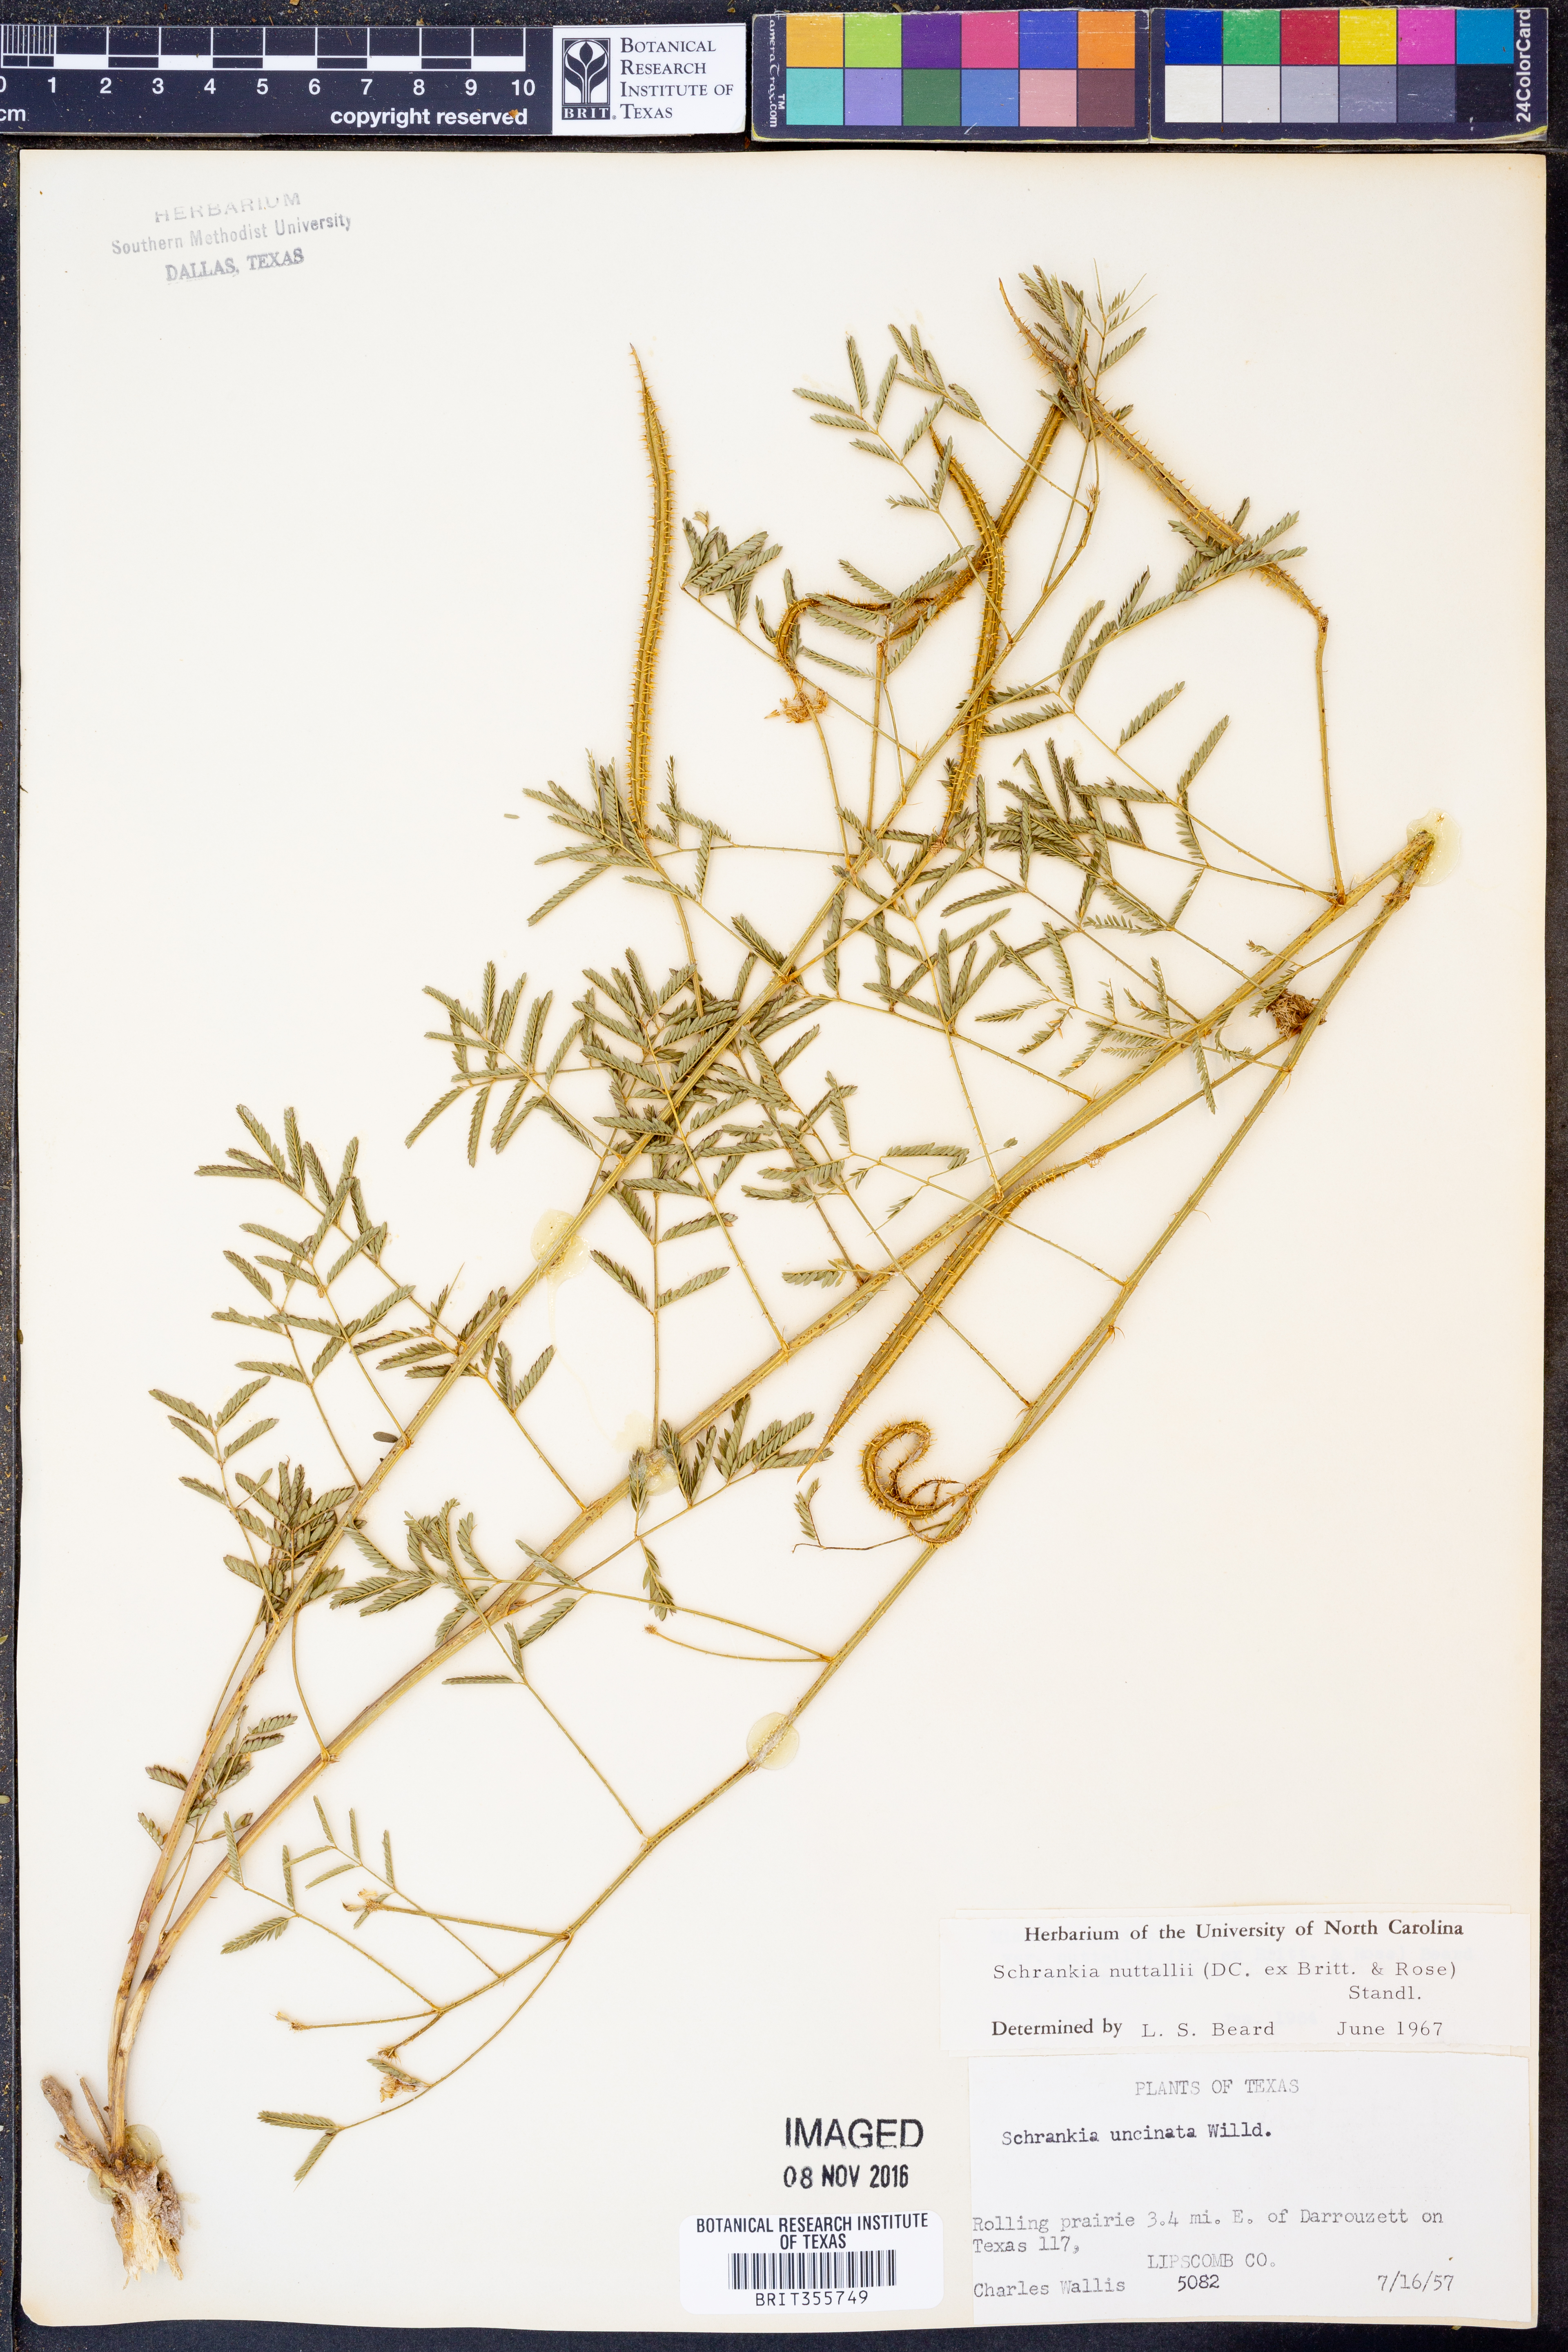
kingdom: Plantae
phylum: Tracheophyta
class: Magnoliopsida
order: Fabales
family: Fabaceae
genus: Mimosa
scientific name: Mimosa quadrivalvis
